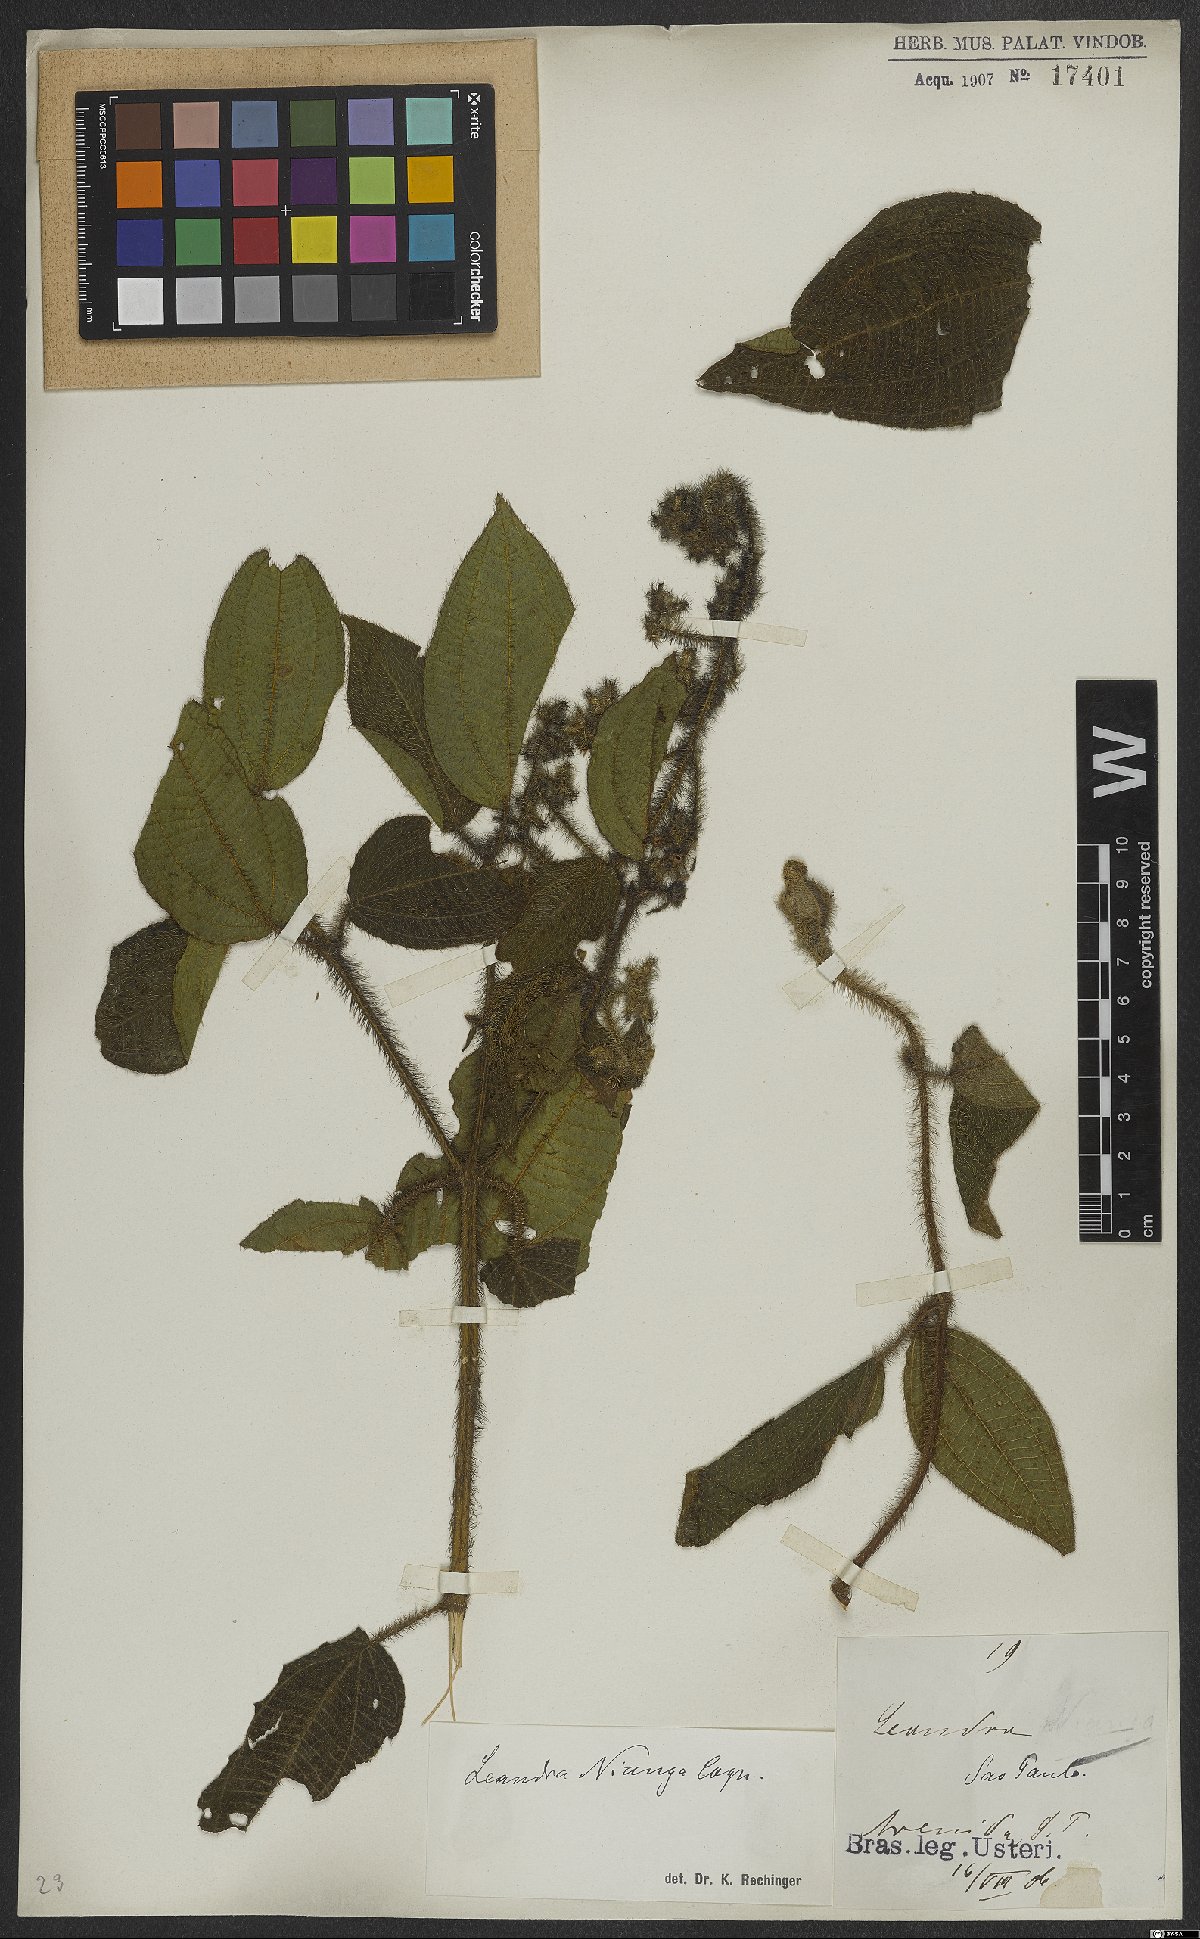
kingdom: Plantae
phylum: Tracheophyta
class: Magnoliopsida
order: Myrtales
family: Melastomataceae
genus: Miconia
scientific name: Miconia nianga
